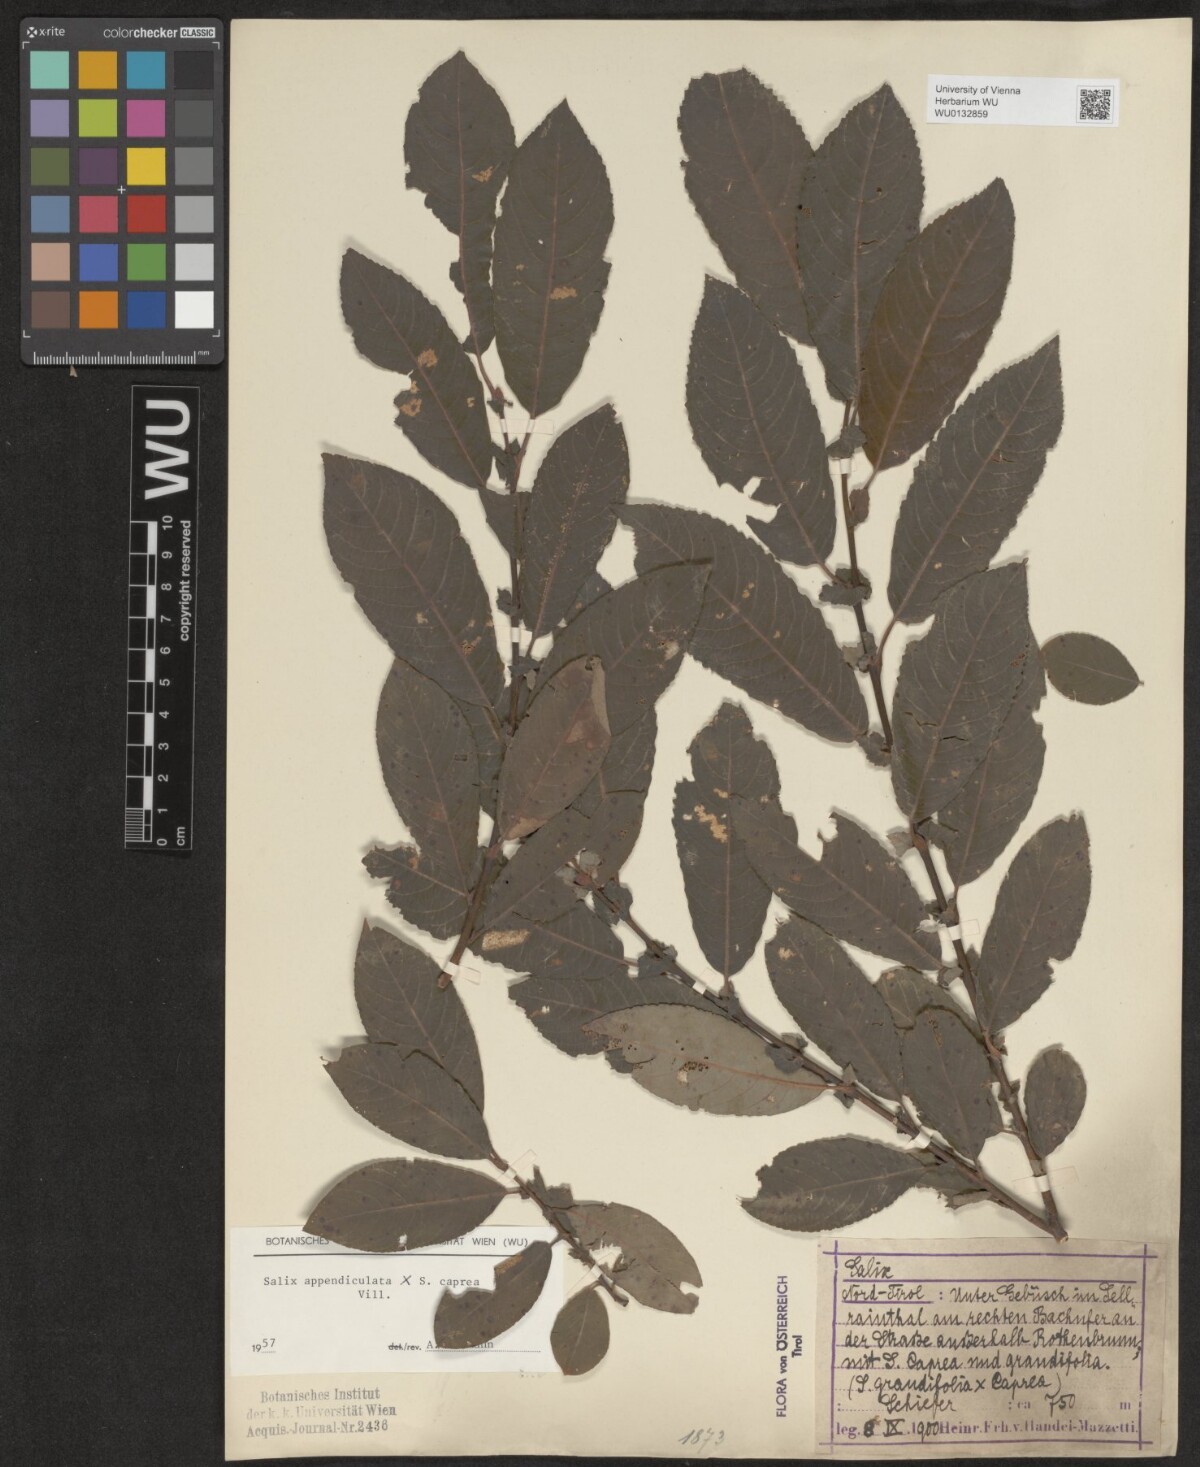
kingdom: Plantae
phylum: Tracheophyta
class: Magnoliopsida
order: Malpighiales
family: Salicaceae
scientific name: Salicaceae
